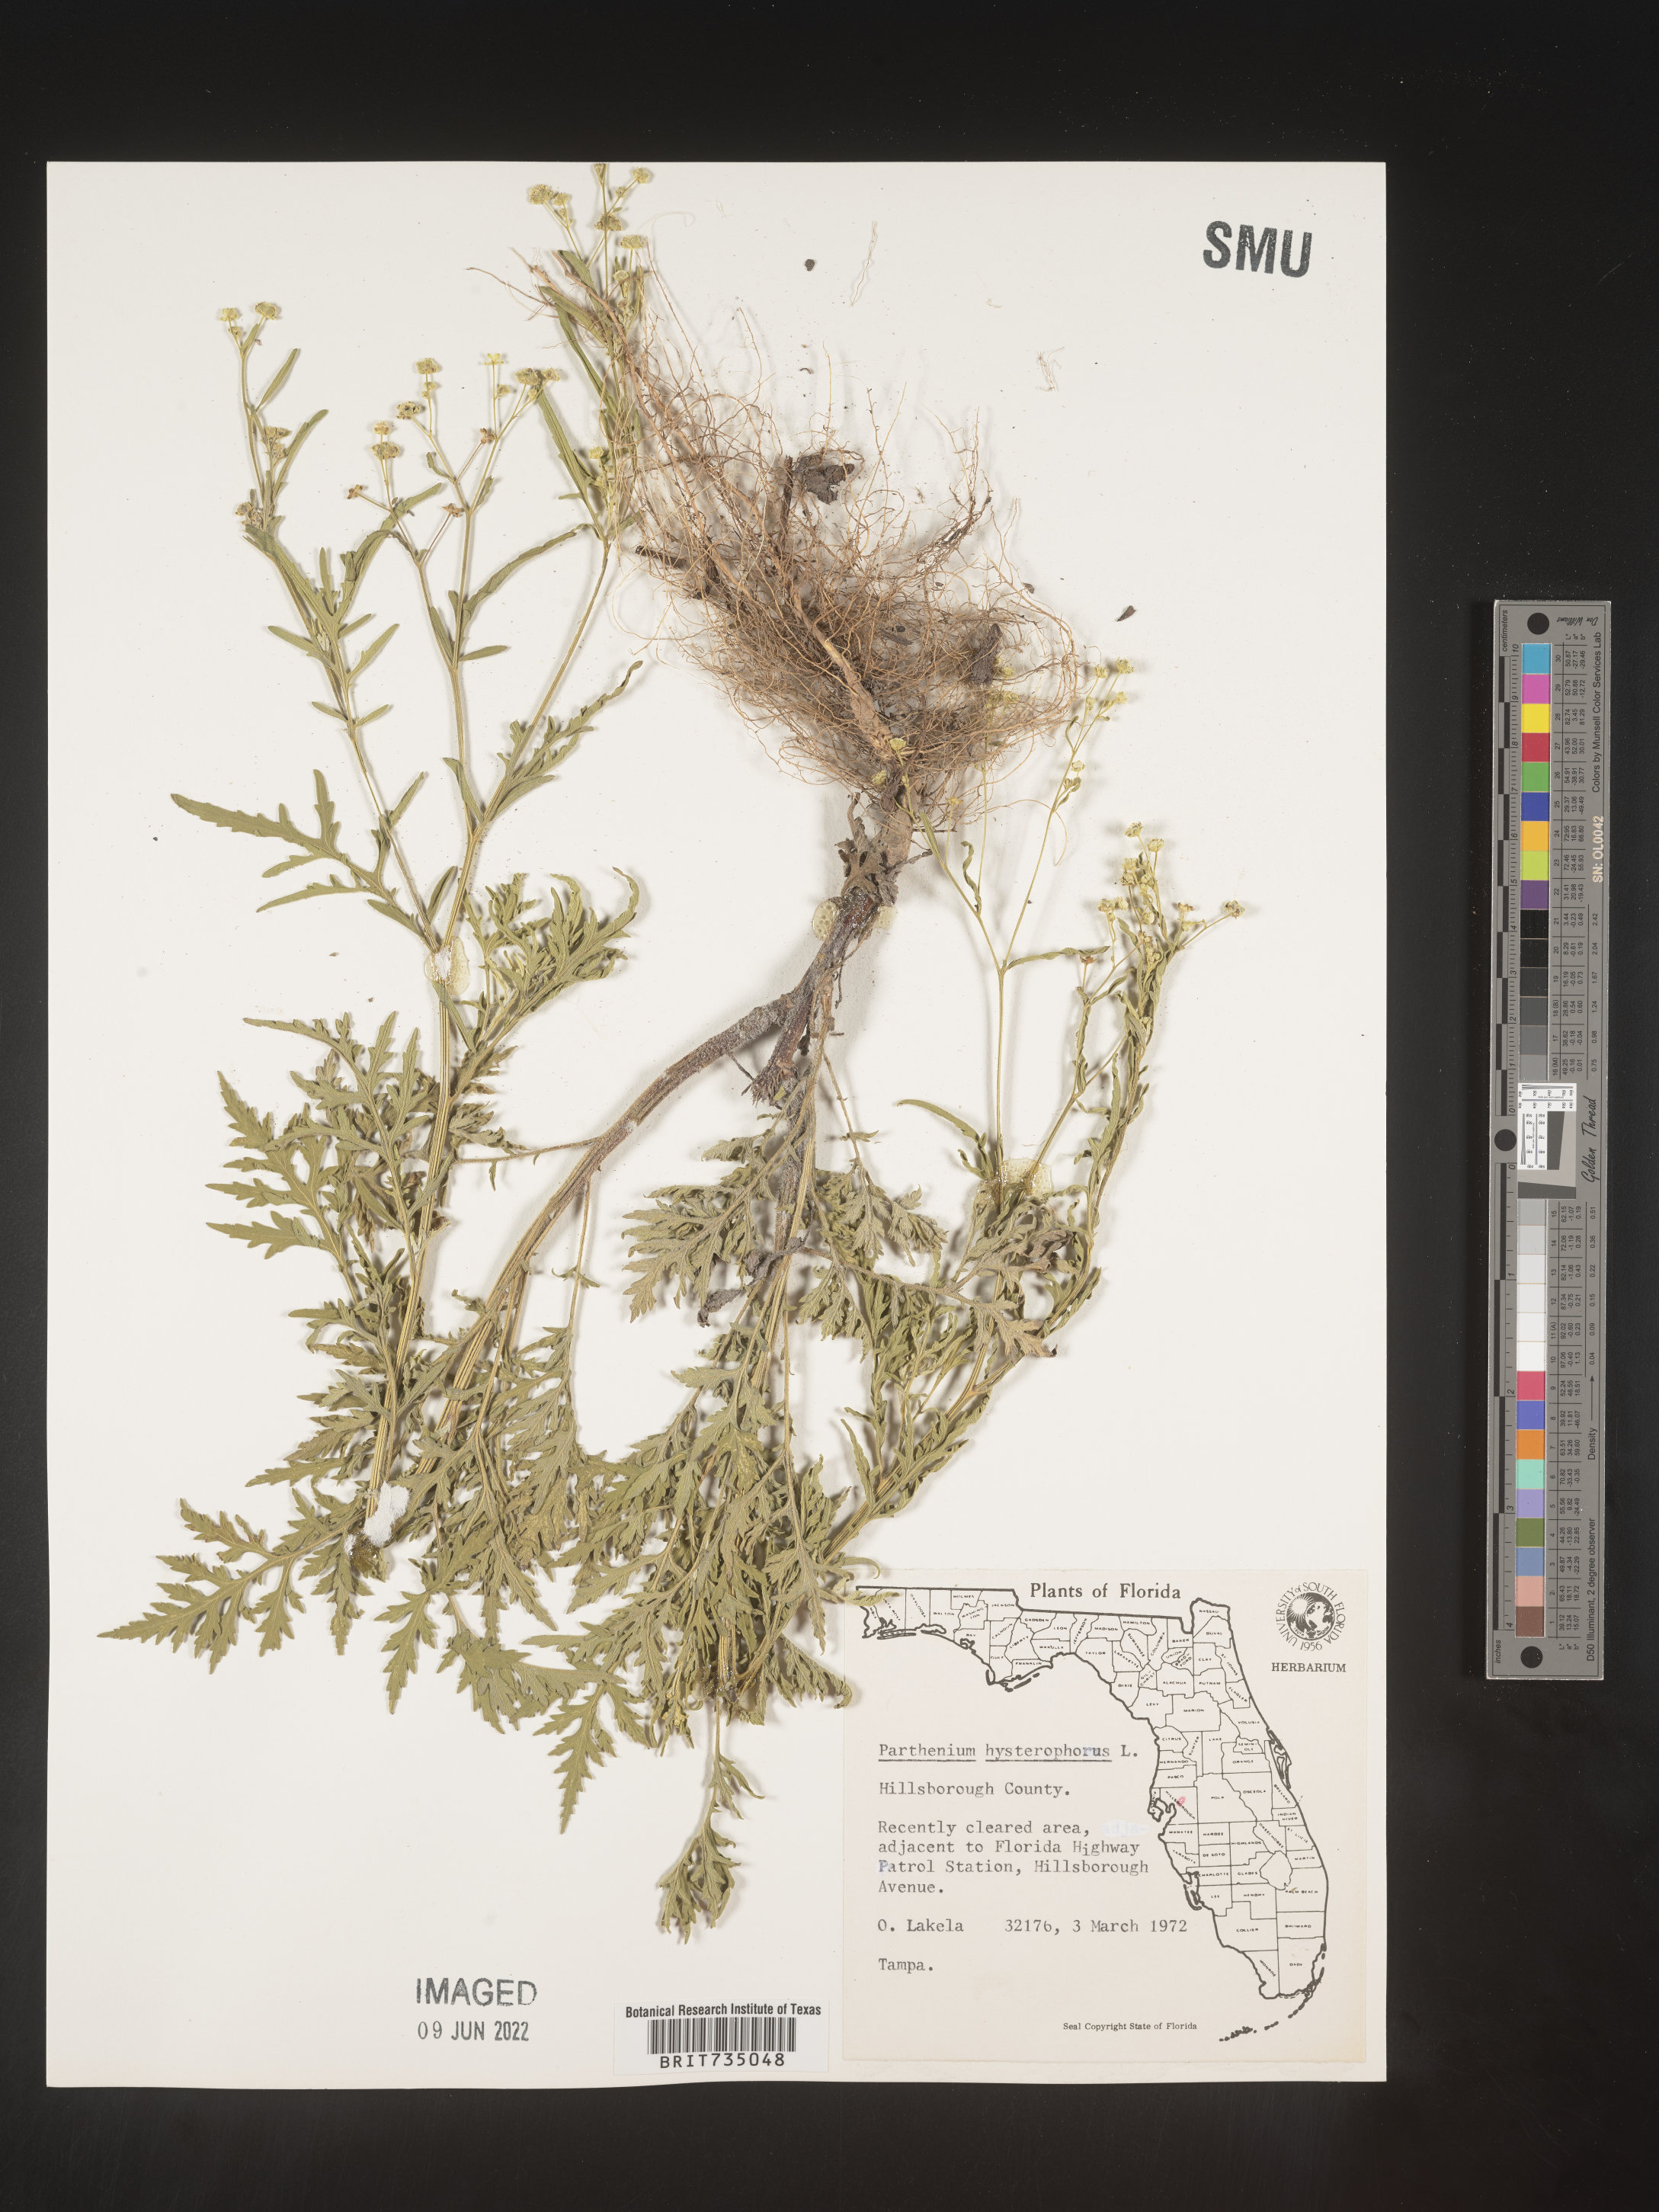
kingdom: Plantae
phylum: Tracheophyta
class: Magnoliopsida
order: Asterales
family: Asteraceae
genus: Parthenium
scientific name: Parthenium hysterophorus
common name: Santa maria feverfew
